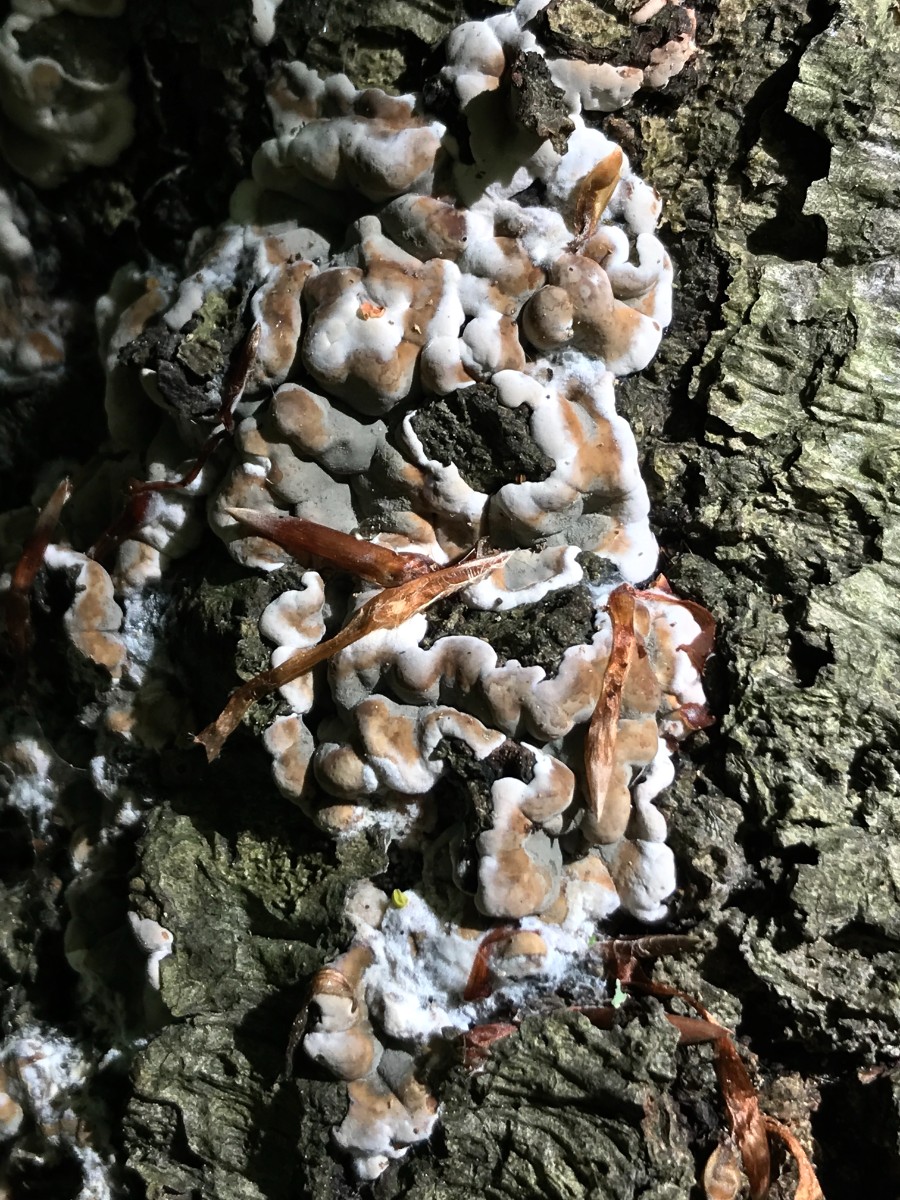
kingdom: Fungi
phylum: Ascomycota
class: Sordariomycetes
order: Xylariales
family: Xylariaceae
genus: Kretzschmaria
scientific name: Kretzschmaria deusta
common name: stor kulsvamp
